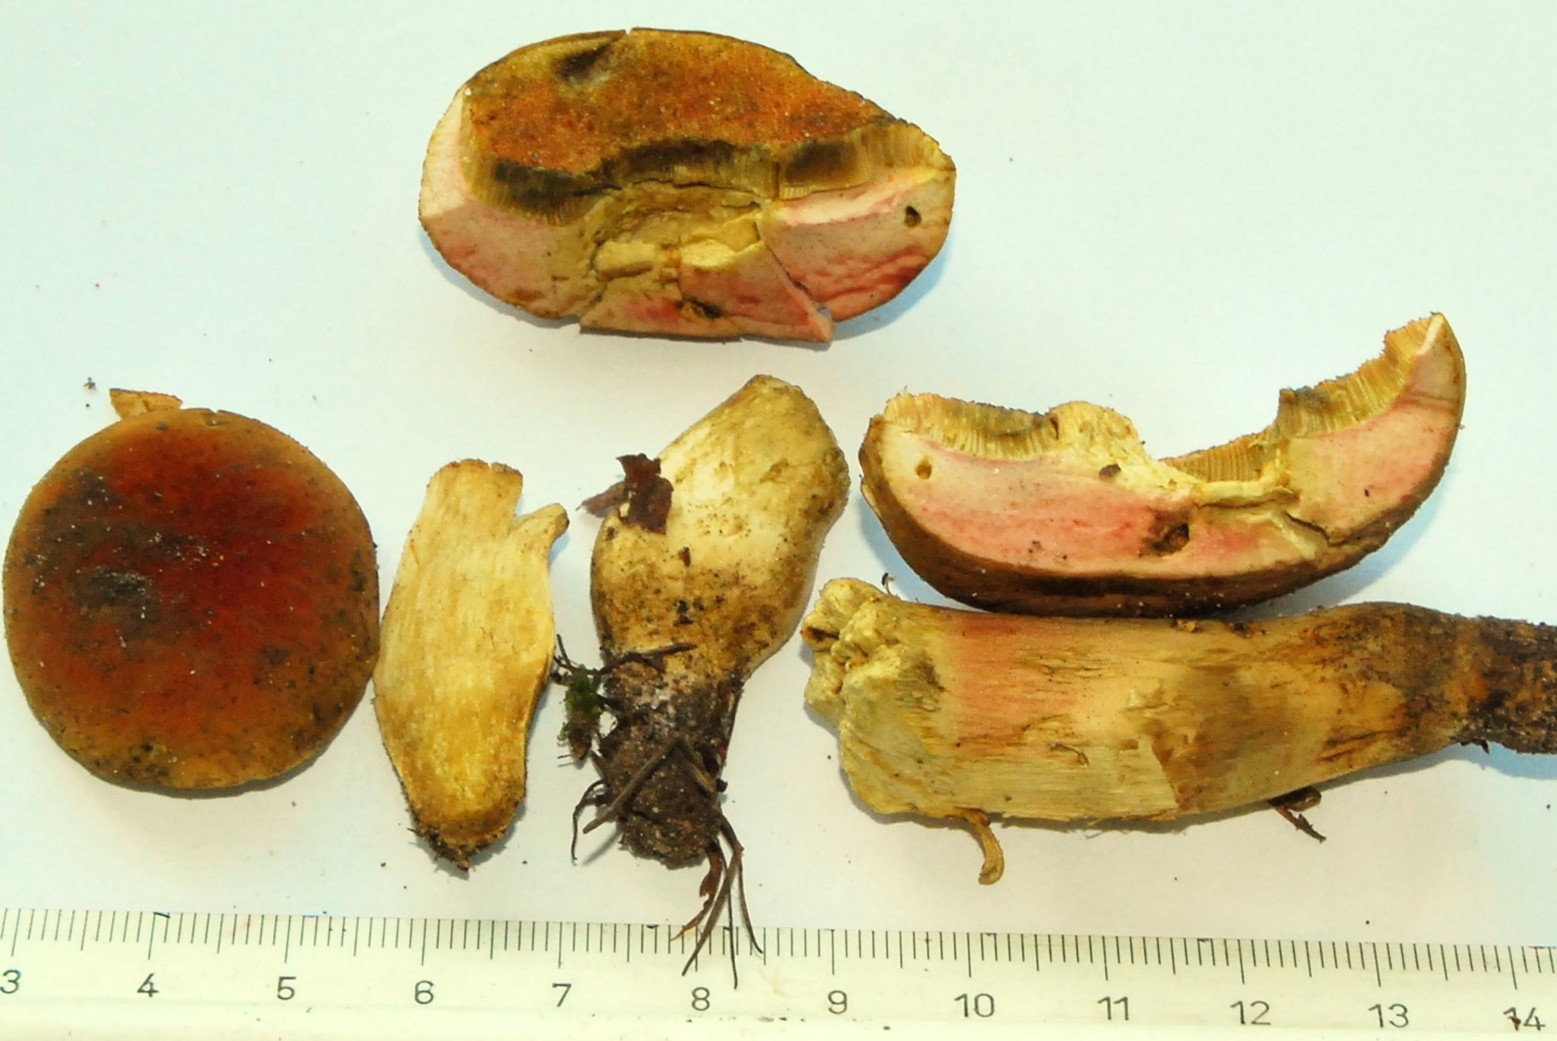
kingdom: Fungi
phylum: Basidiomycota
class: Agaricomycetes
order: Boletales
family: Boletaceae
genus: Hortiboletus
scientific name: Hortiboletus bubalinus
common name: aurora-rørhat
